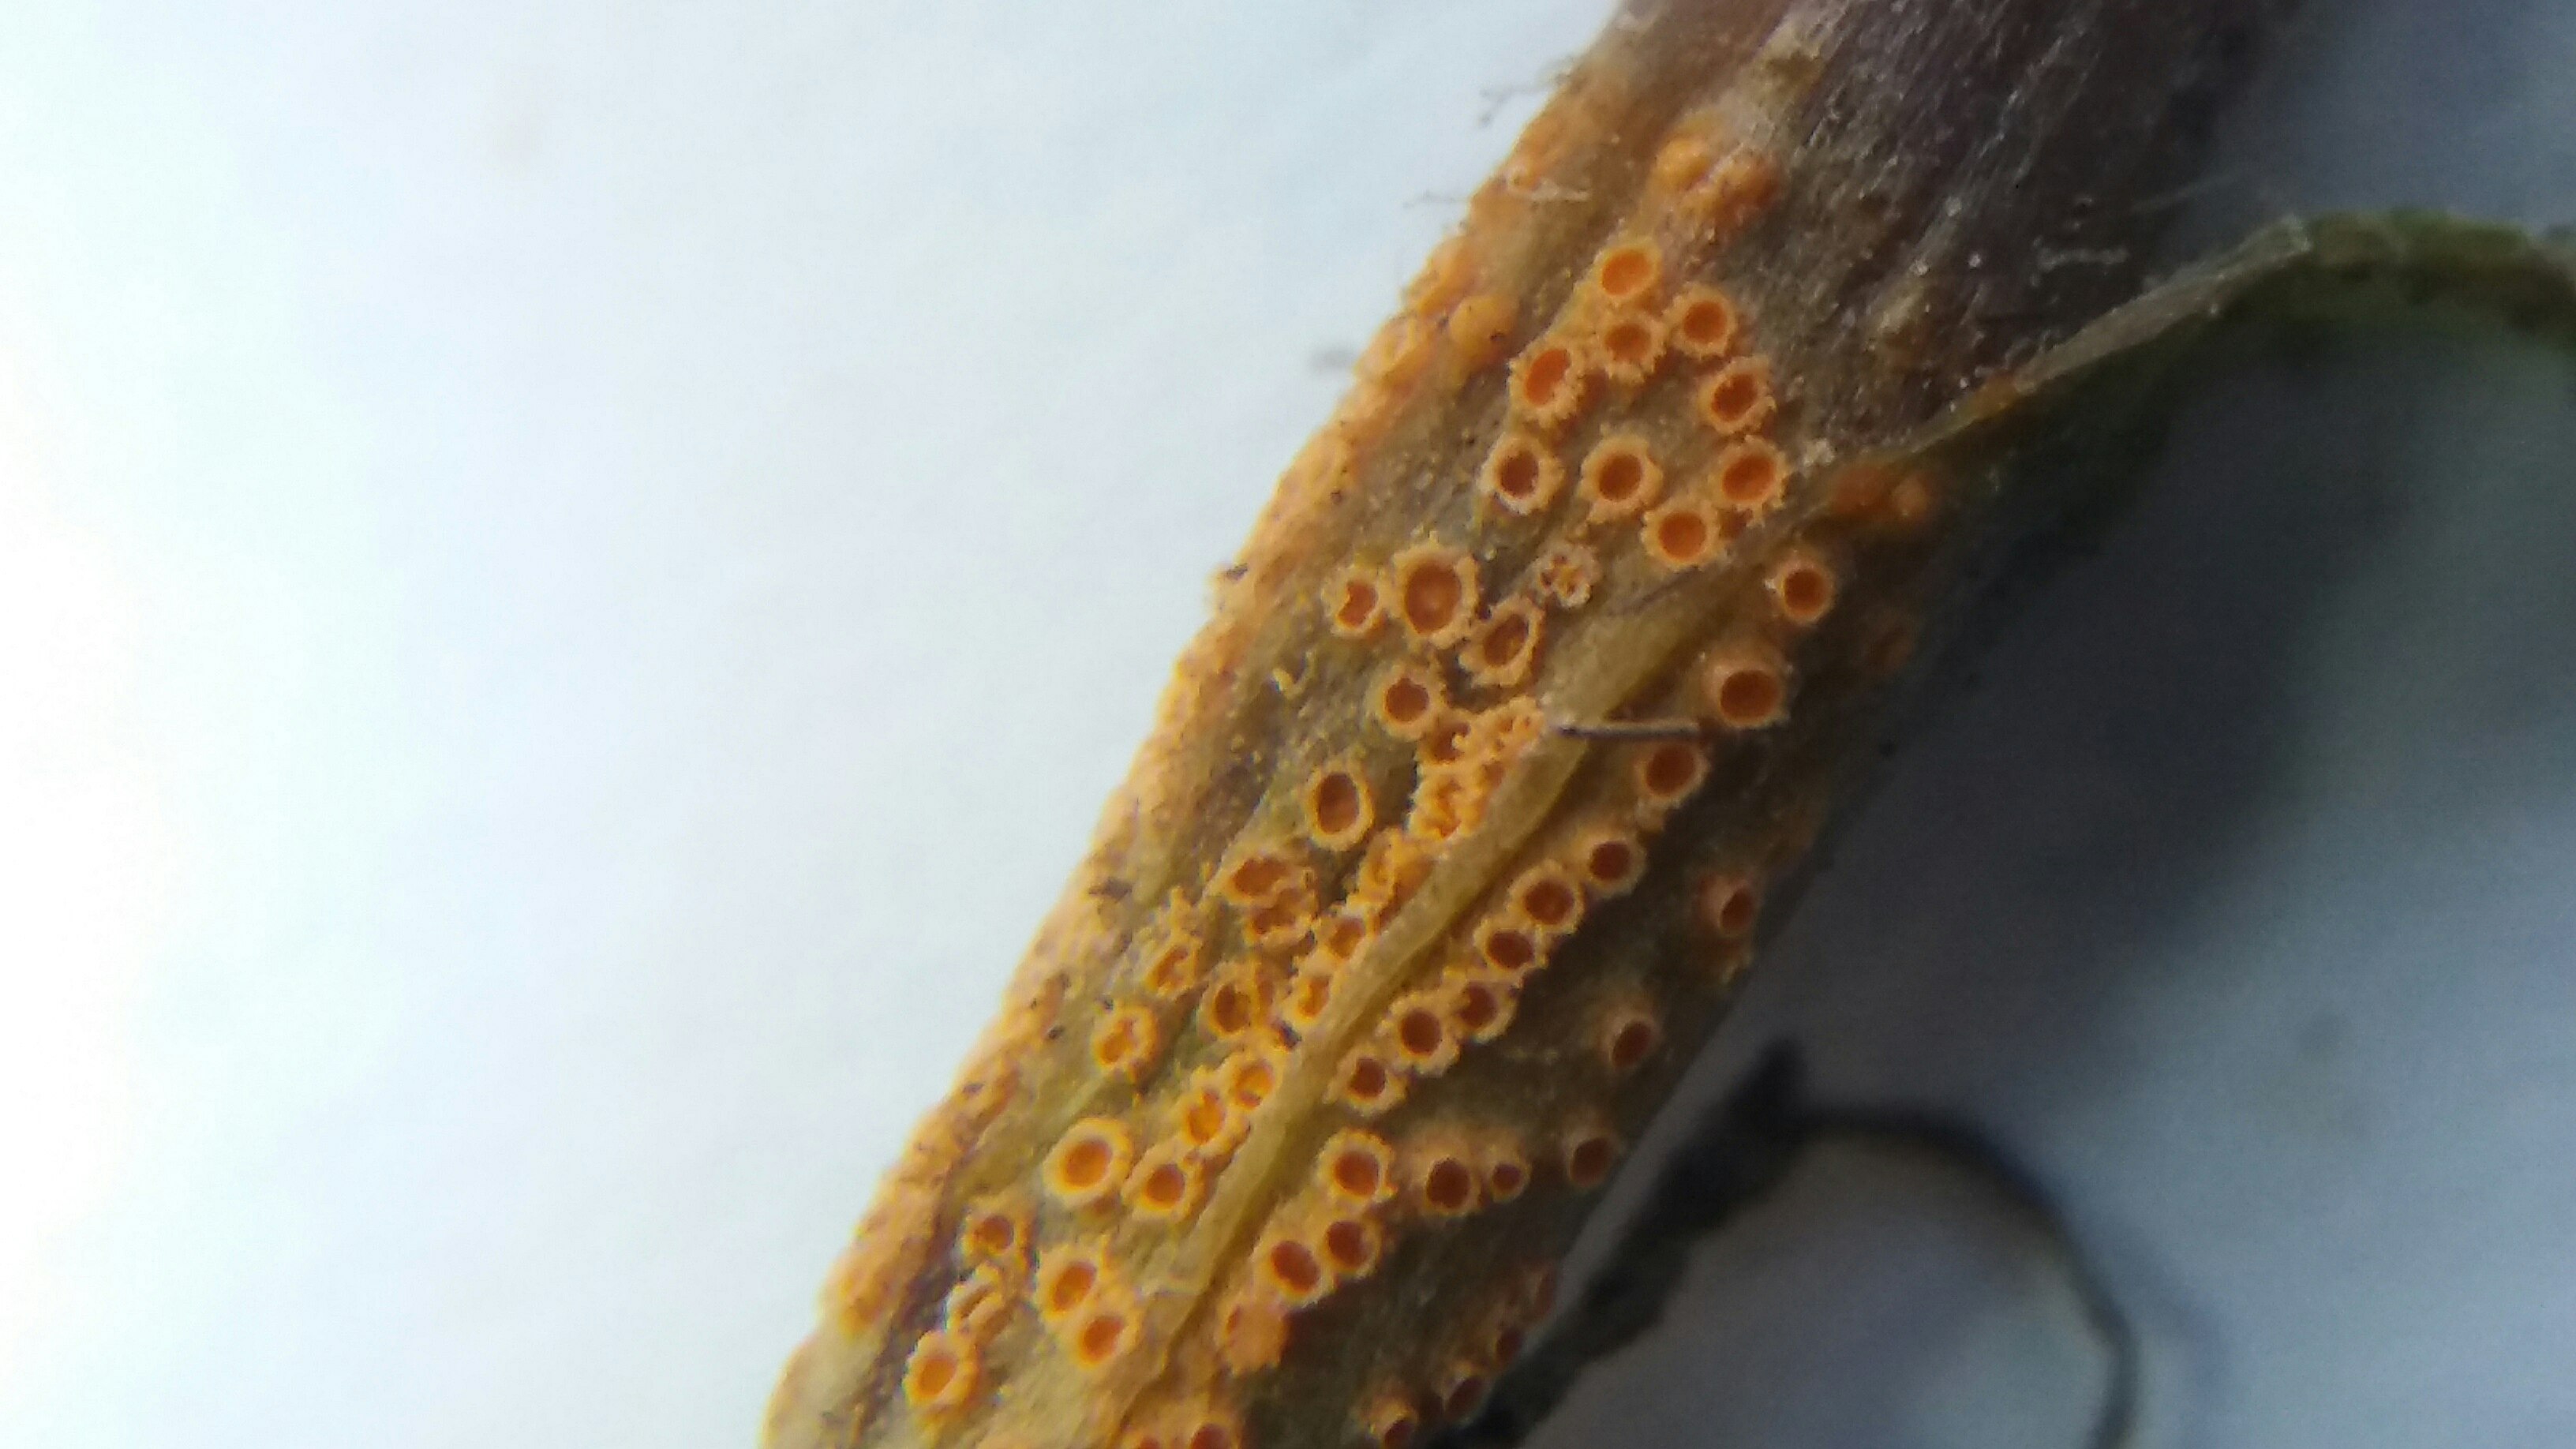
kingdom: Fungi
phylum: Basidiomycota
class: Pucciniomycetes
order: Pucciniales
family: Pucciniaceae
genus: Puccinia
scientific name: Puccinia lagenophorae
